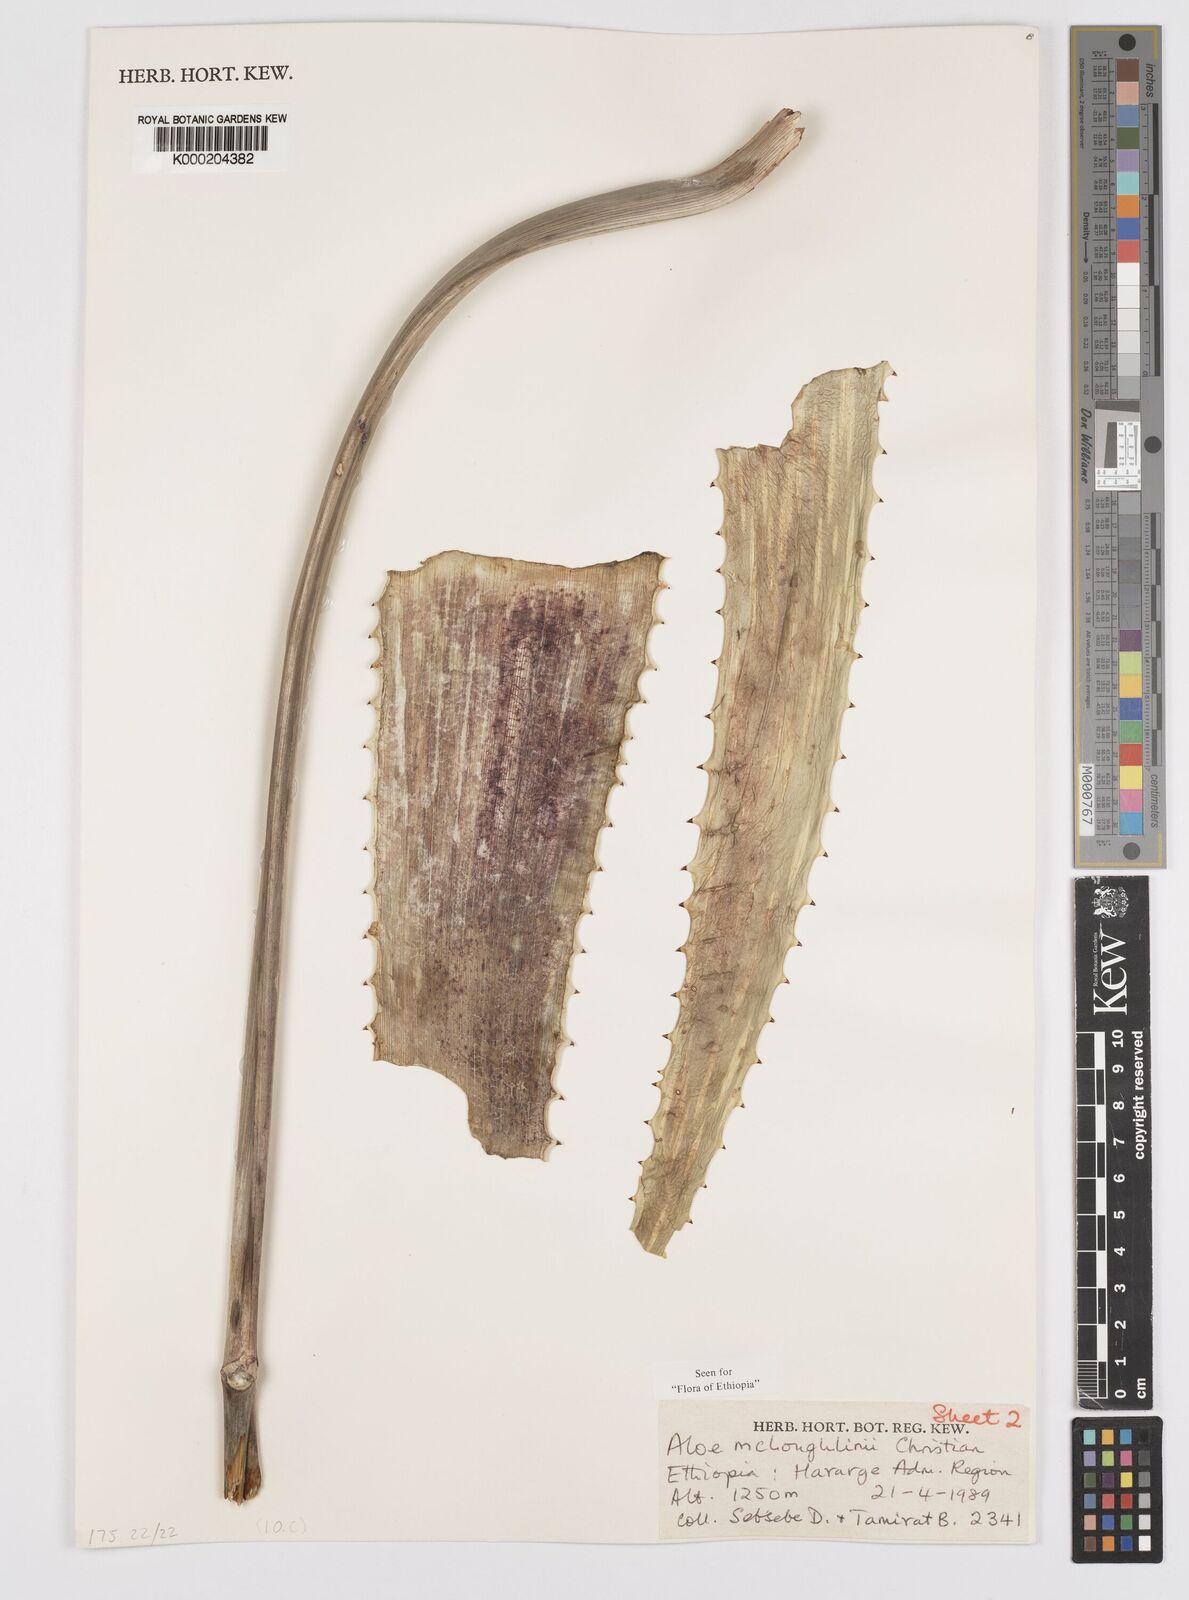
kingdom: Plantae
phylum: Tracheophyta
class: Liliopsida
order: Asparagales
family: Asphodelaceae
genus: Aloe
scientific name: Aloe
